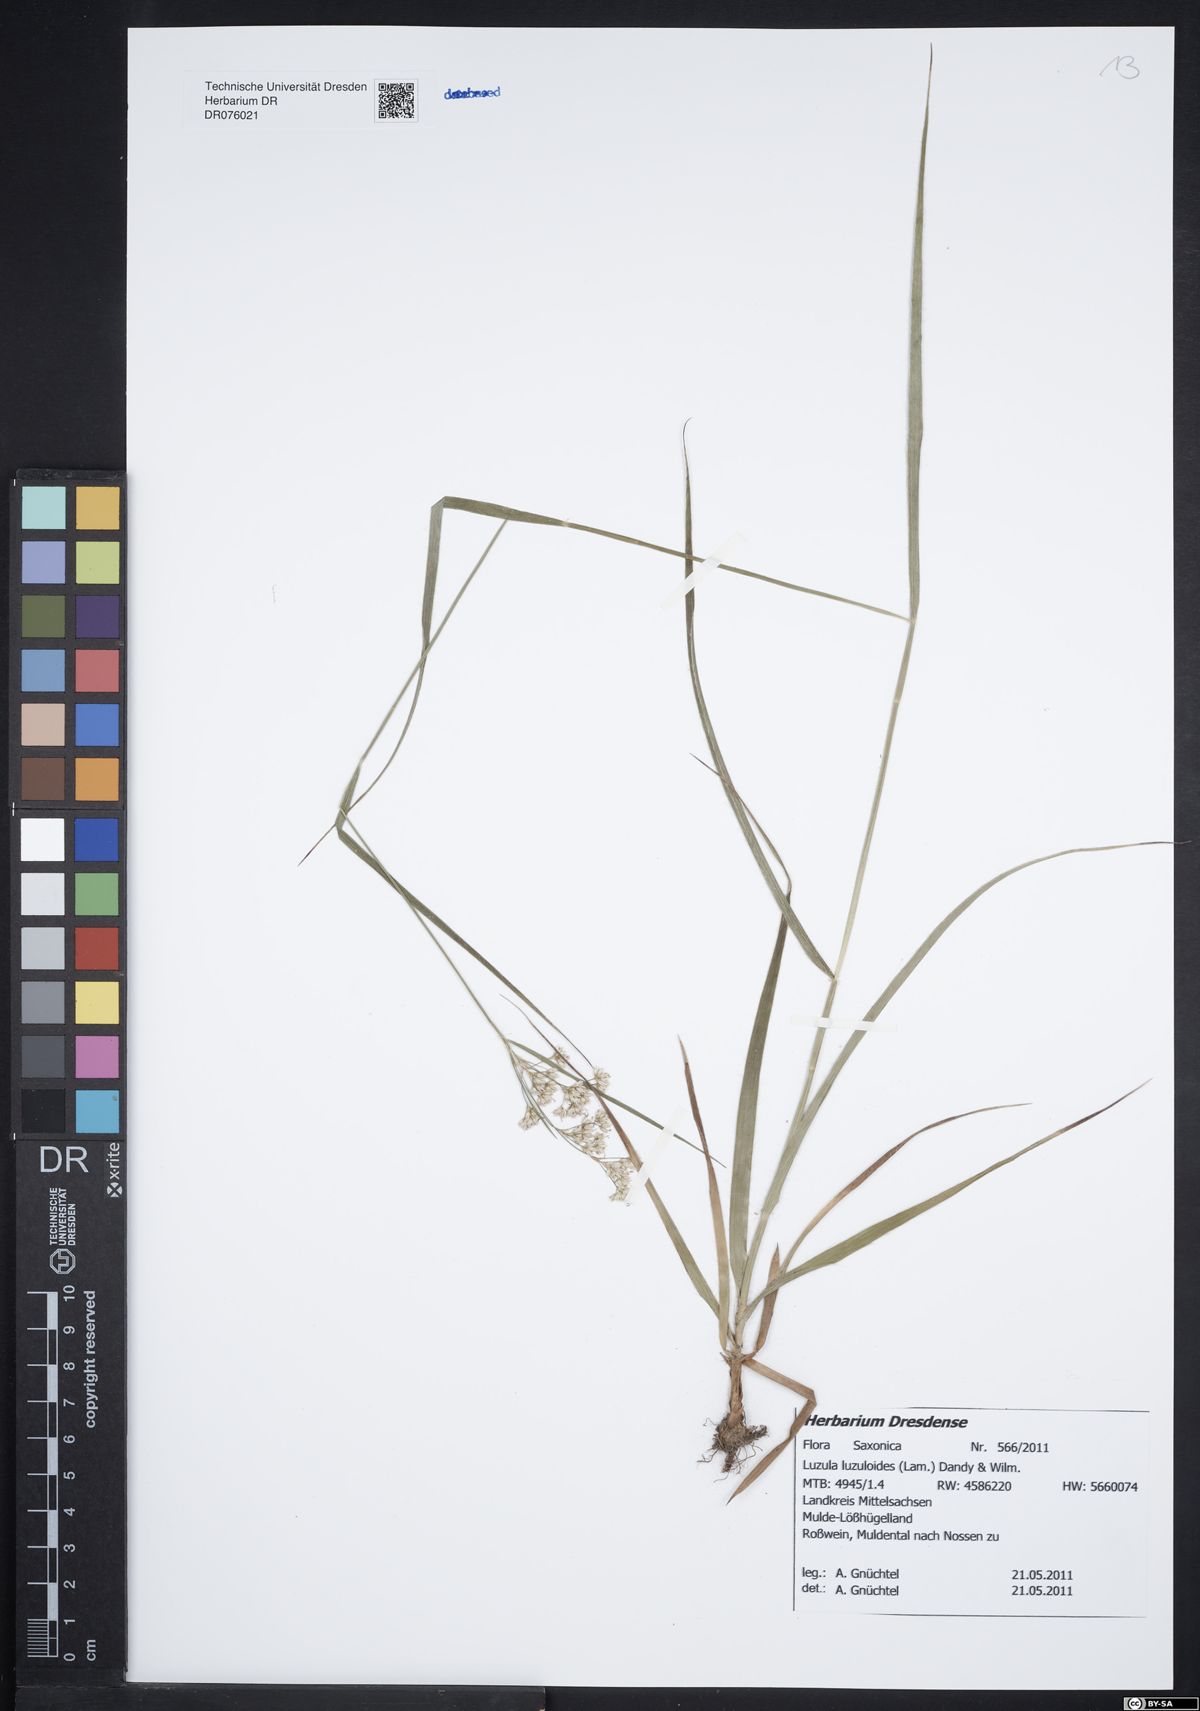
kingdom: Plantae
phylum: Tracheophyta
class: Liliopsida
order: Poales
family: Juncaceae
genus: Luzula
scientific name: Luzula luzuloides
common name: White wood-rush
